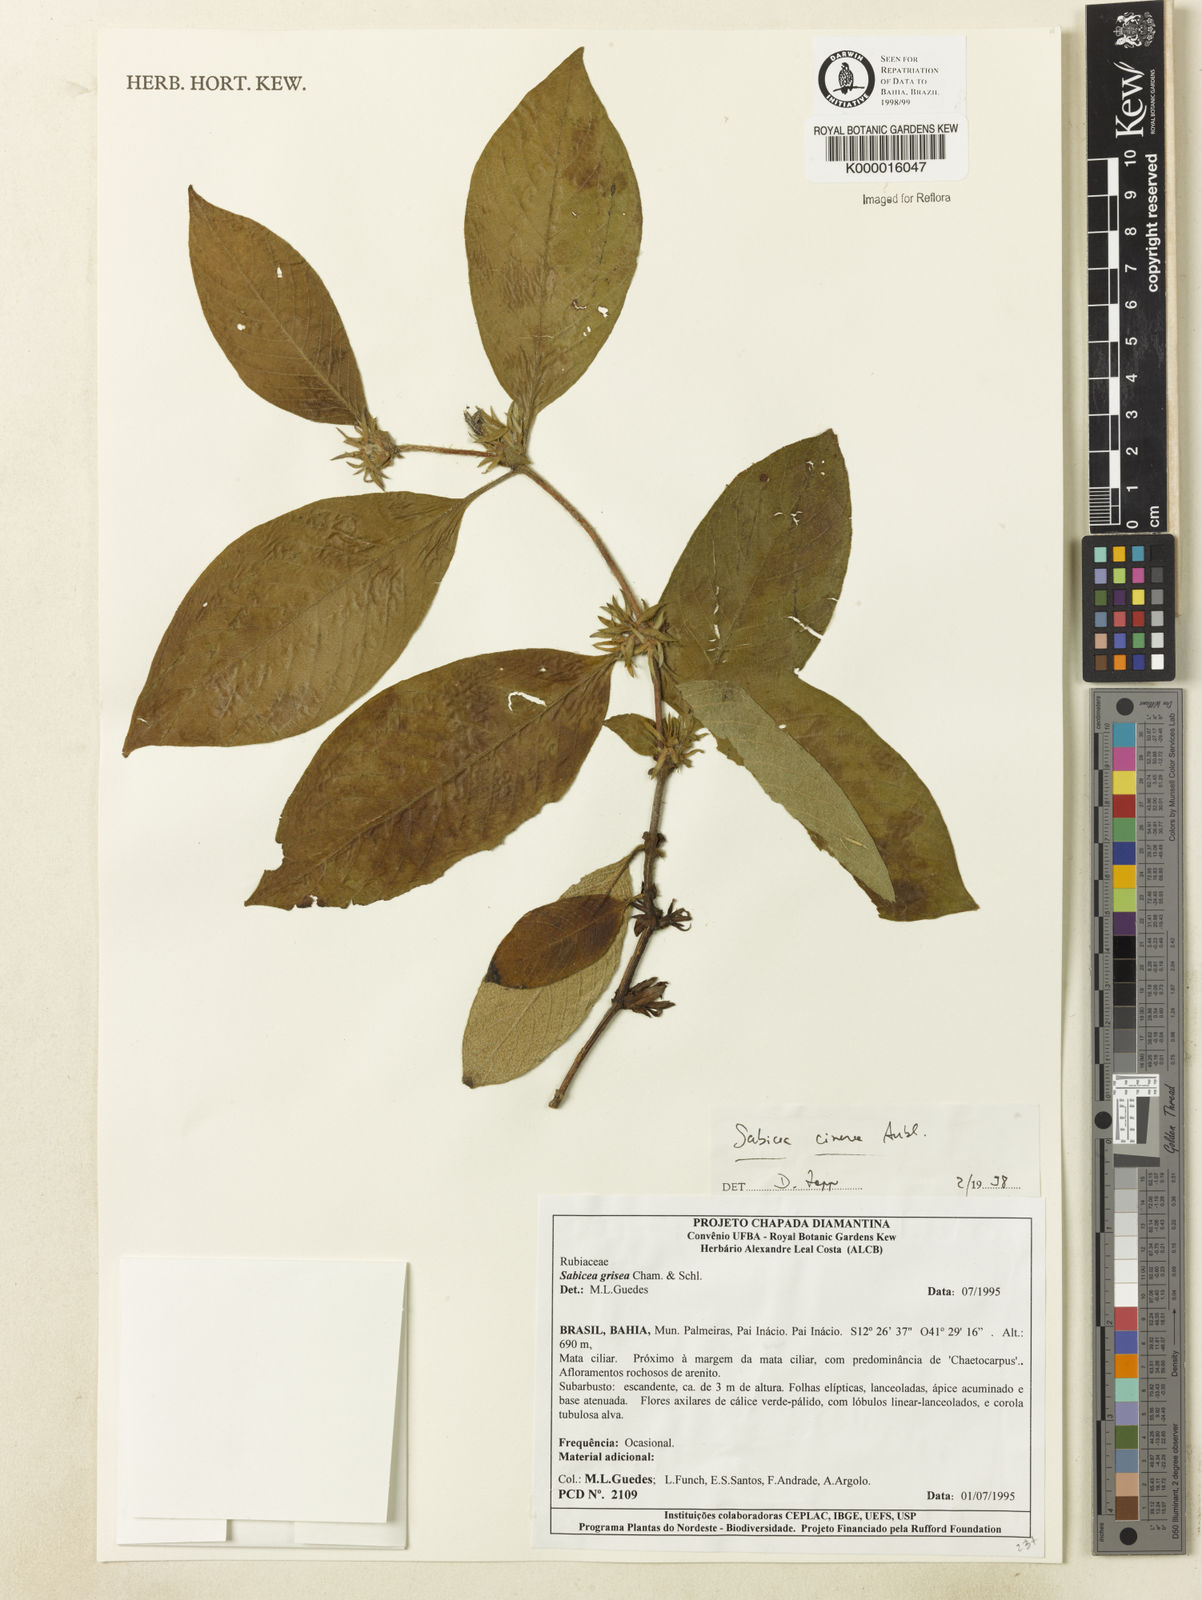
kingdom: Plantae
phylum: Tracheophyta
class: Magnoliopsida
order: Gentianales
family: Rubiaceae
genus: Sabicea
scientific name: Sabicea cinerea
